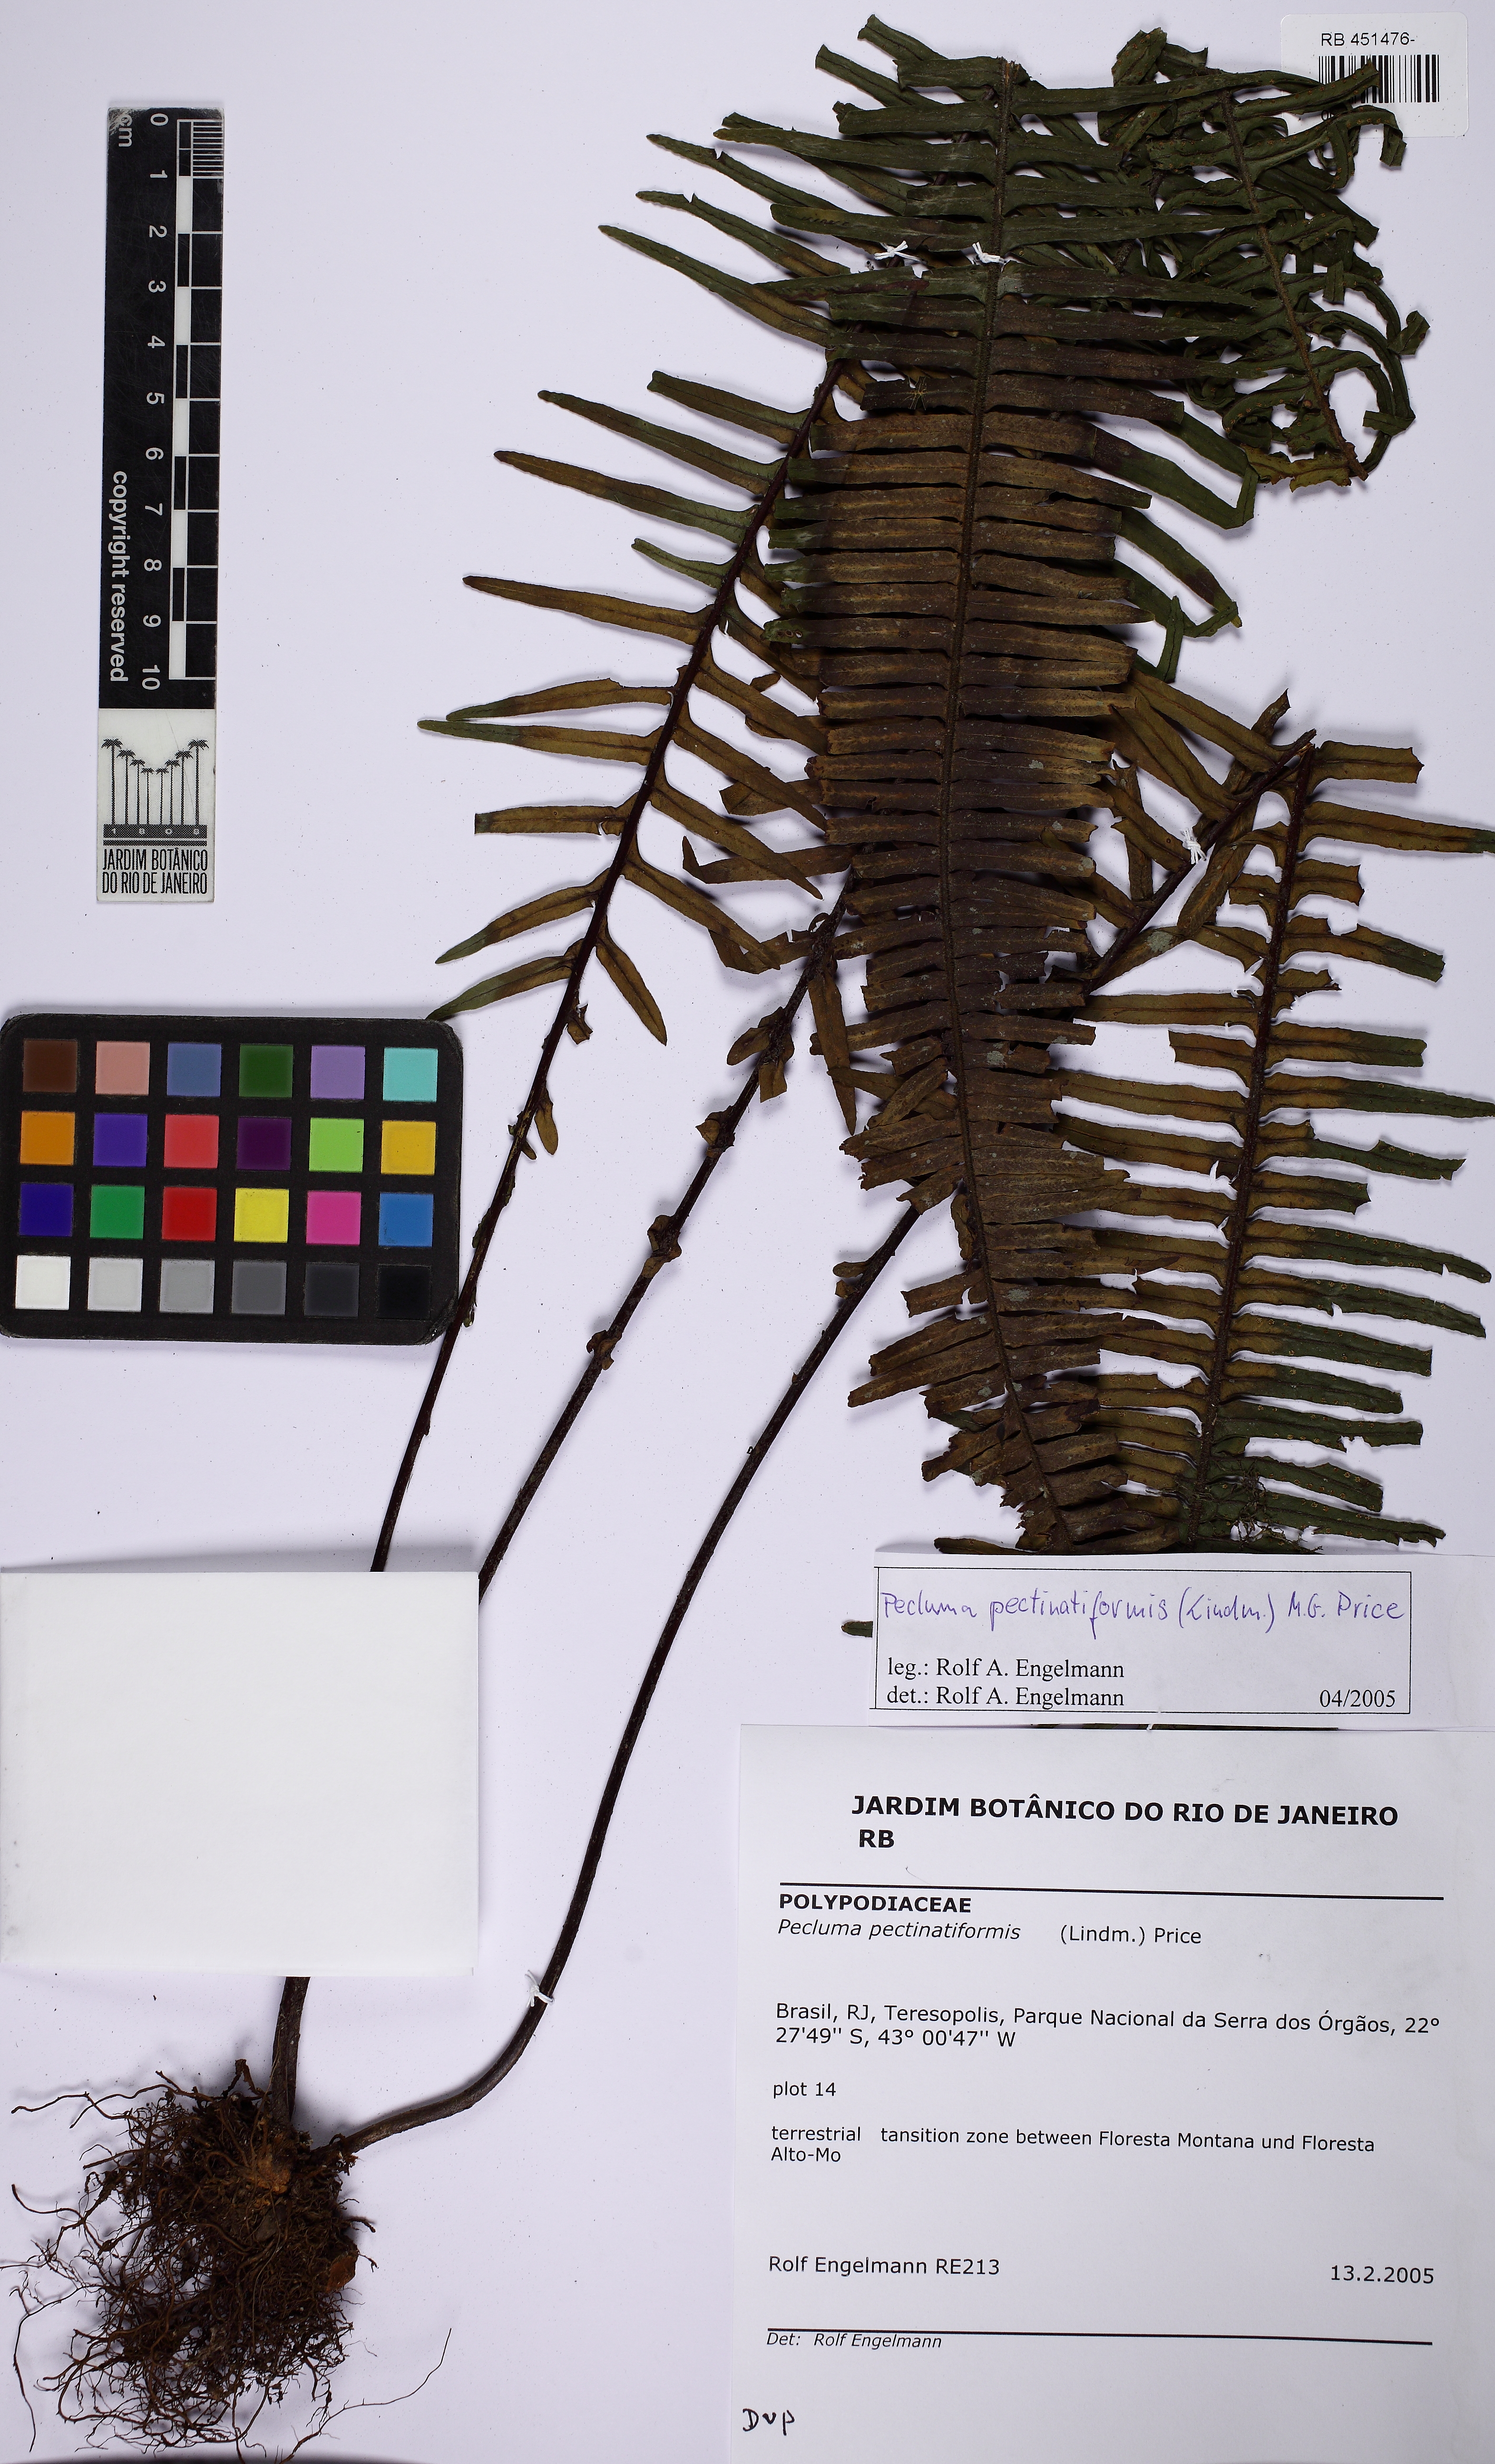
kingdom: Plantae
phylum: Tracheophyta
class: Polypodiopsida
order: Polypodiales
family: Polypodiaceae
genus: Pecluma
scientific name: Pecluma pectinatiformis
